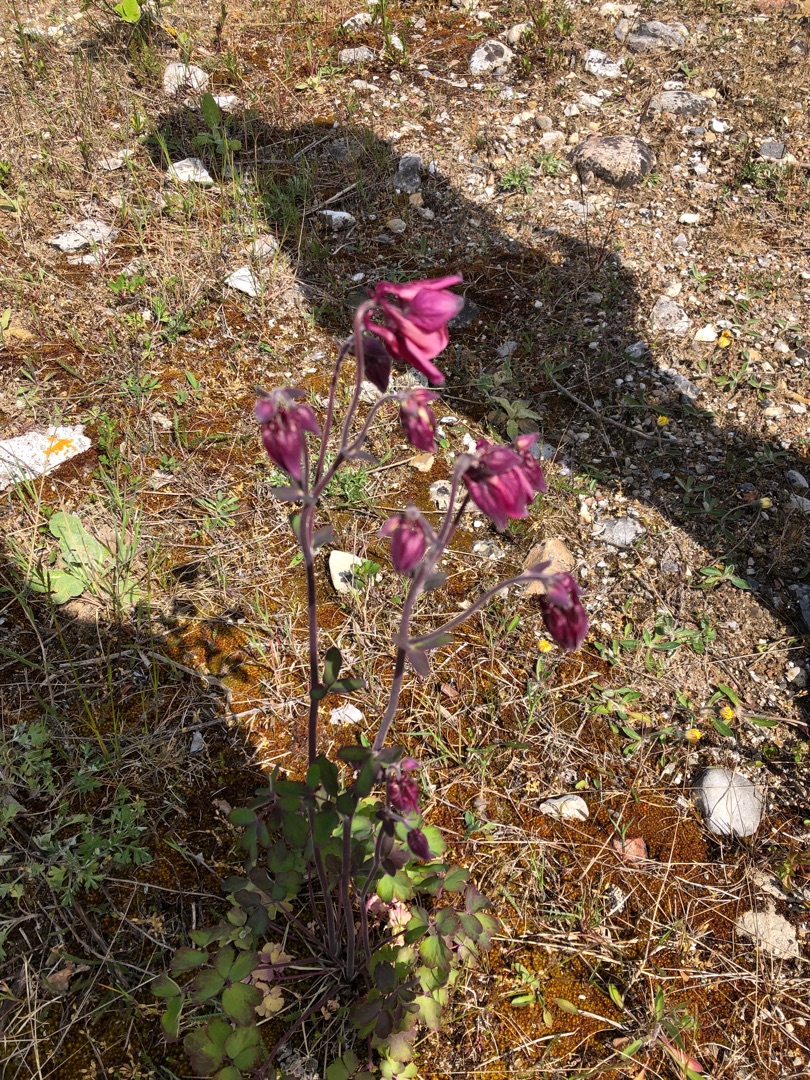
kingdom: Plantae
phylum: Tracheophyta
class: Magnoliopsida
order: Ranunculales
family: Ranunculaceae
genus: Aquilegia
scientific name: Aquilegia vulgaris
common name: Akeleje
